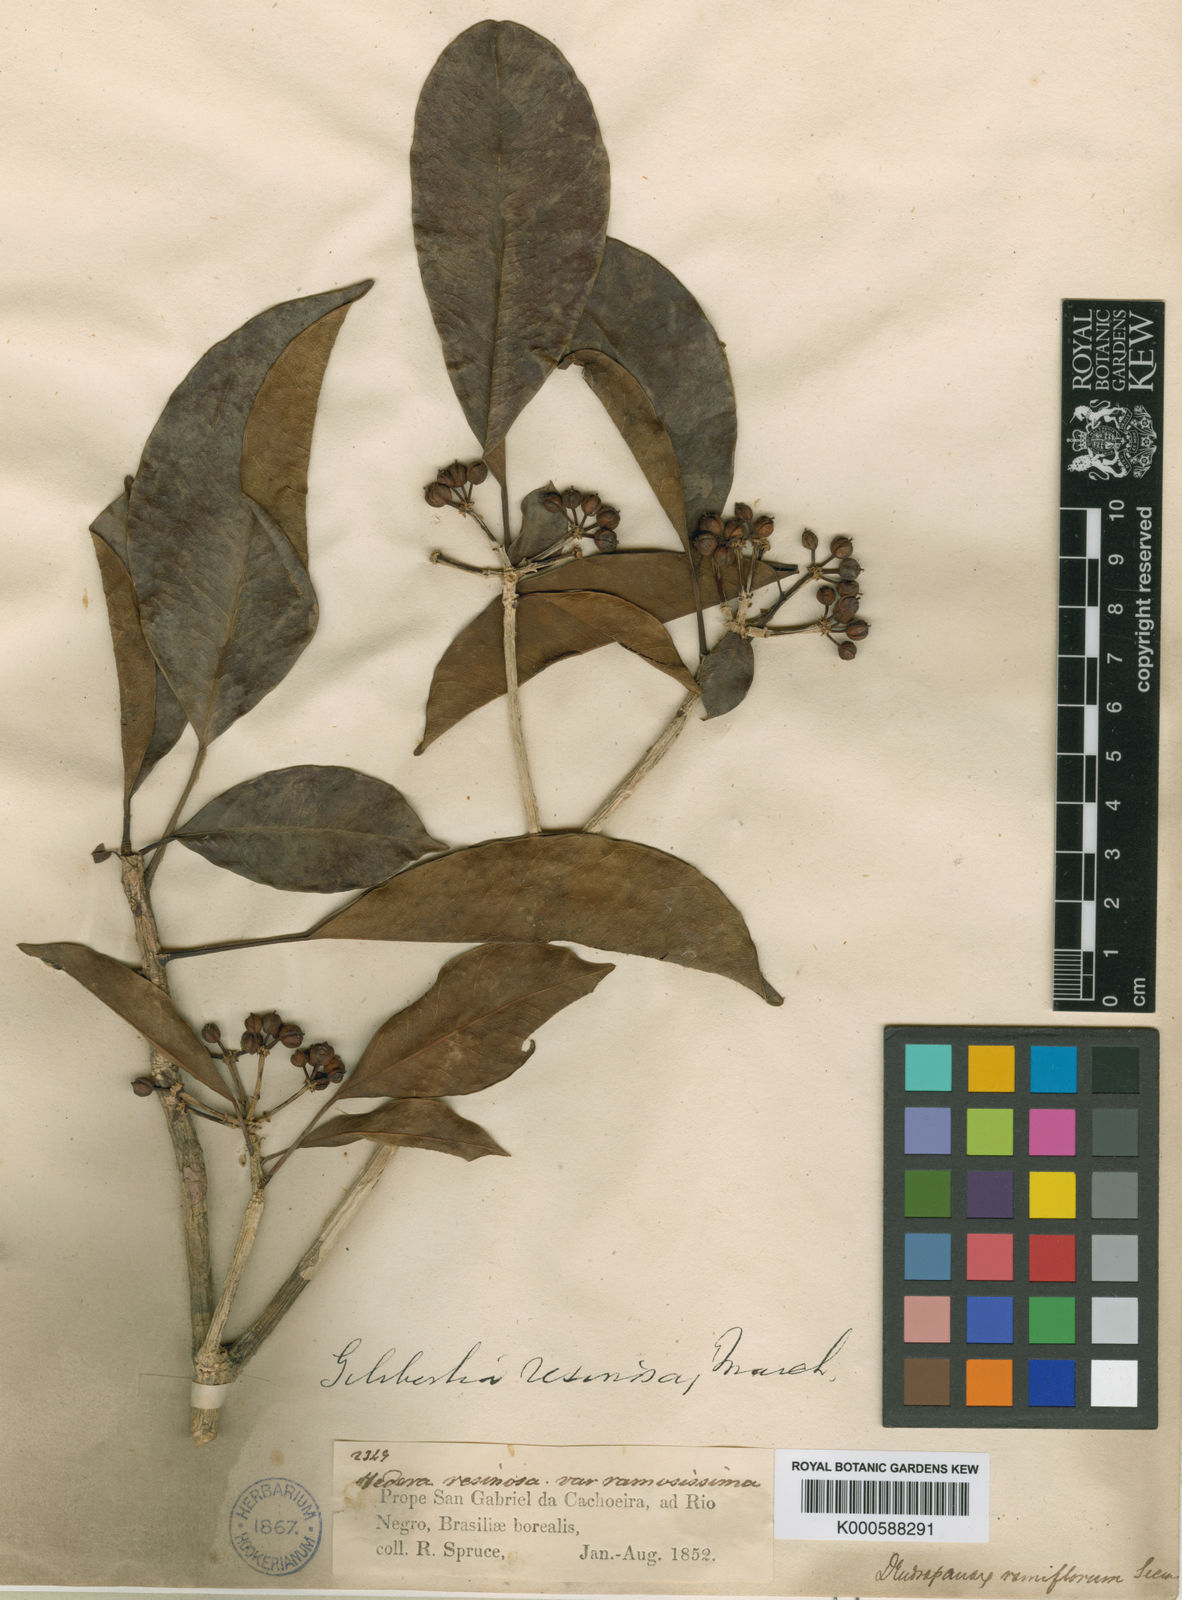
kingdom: Plantae
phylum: Tracheophyta
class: Magnoliopsida
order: Apiales
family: Araliaceae
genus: Dendropanax
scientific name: Dendropanax resinosus
